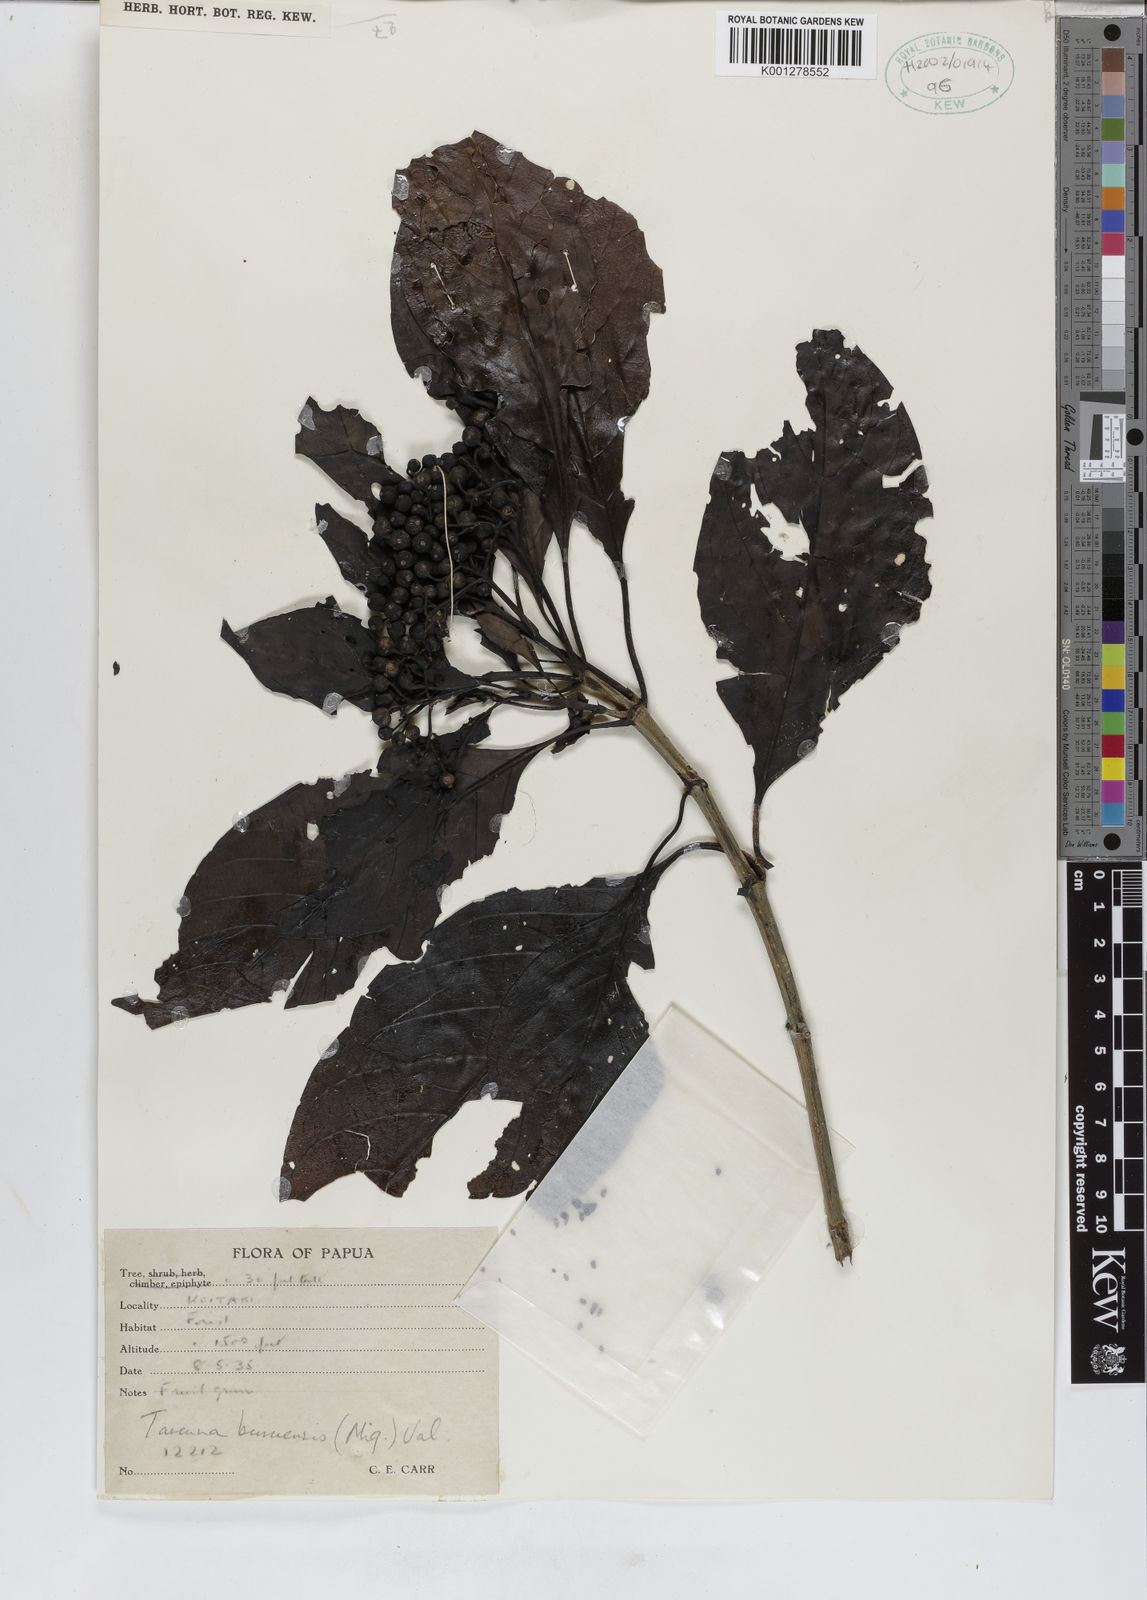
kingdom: Plantae
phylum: Tracheophyta
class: Magnoliopsida
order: Gentianales
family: Rubiaceae
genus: Tarenna
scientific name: Tarenna sambucina
